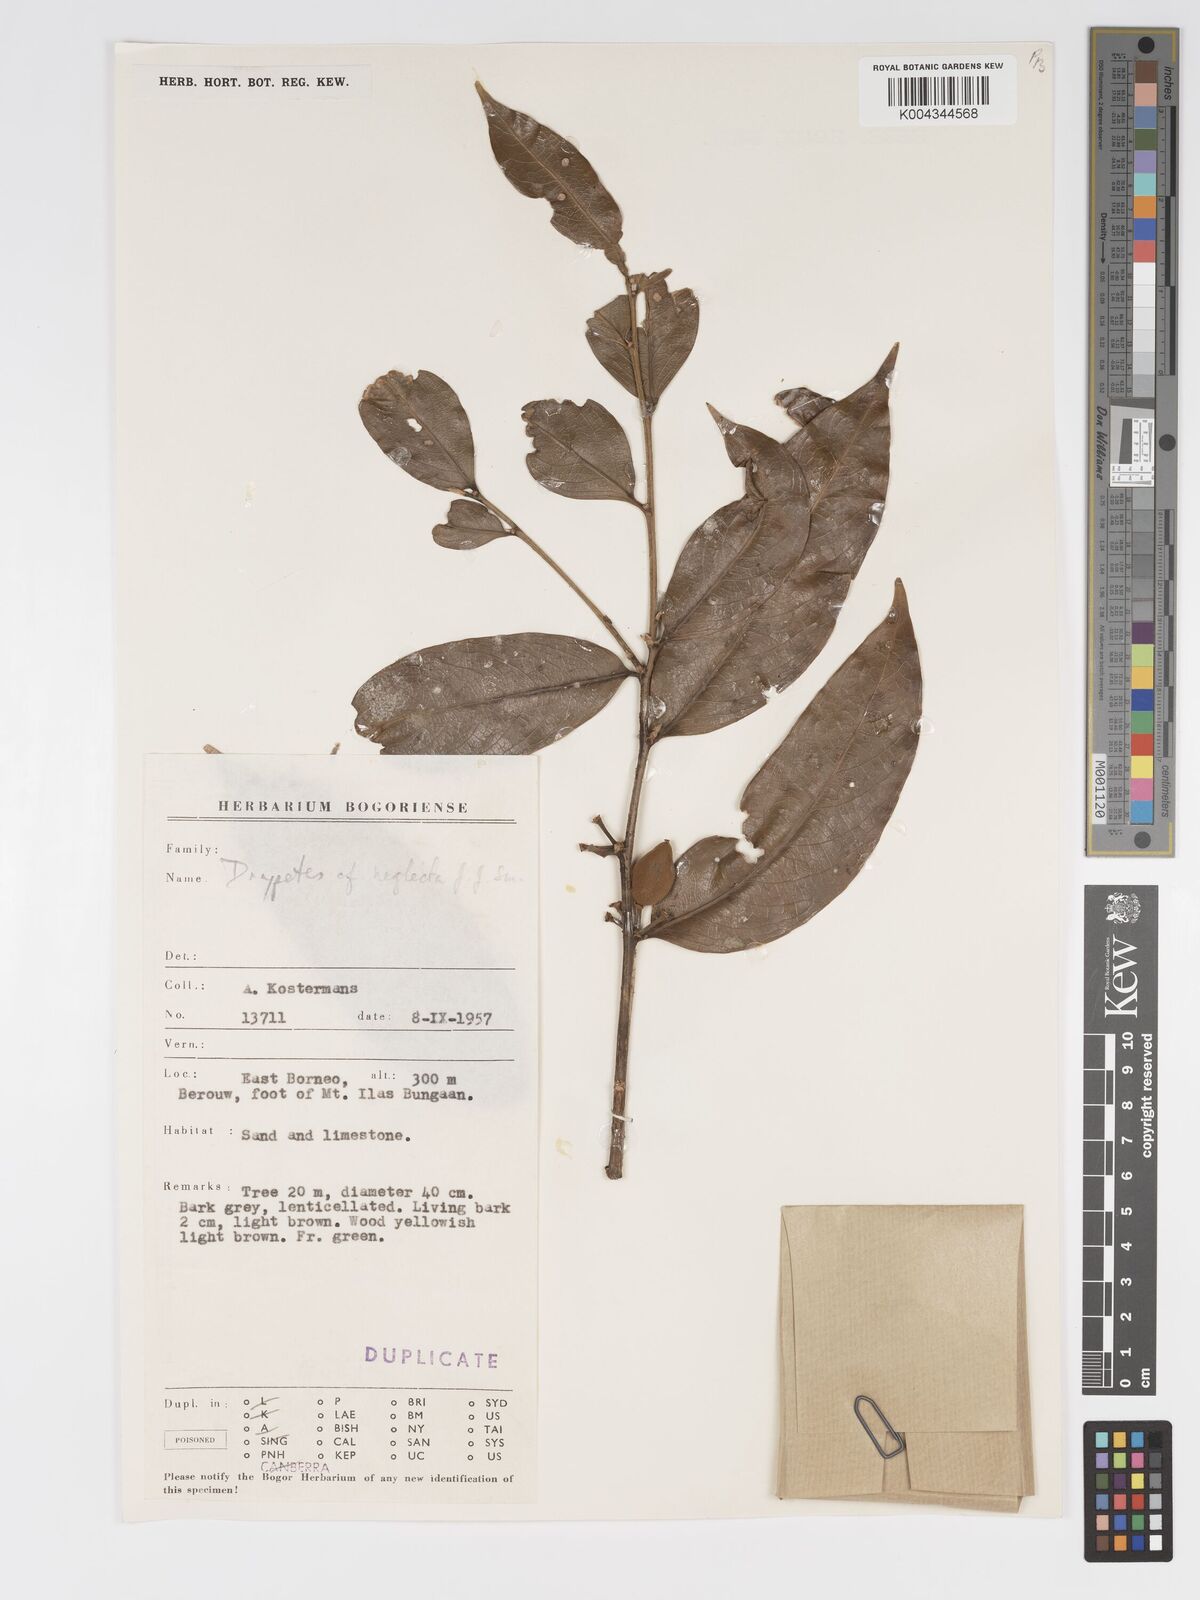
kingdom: Plantae
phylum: Tracheophyta
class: Magnoliopsida
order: Malpighiales
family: Putranjivaceae
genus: Drypetes
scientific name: Drypetes neglecta
